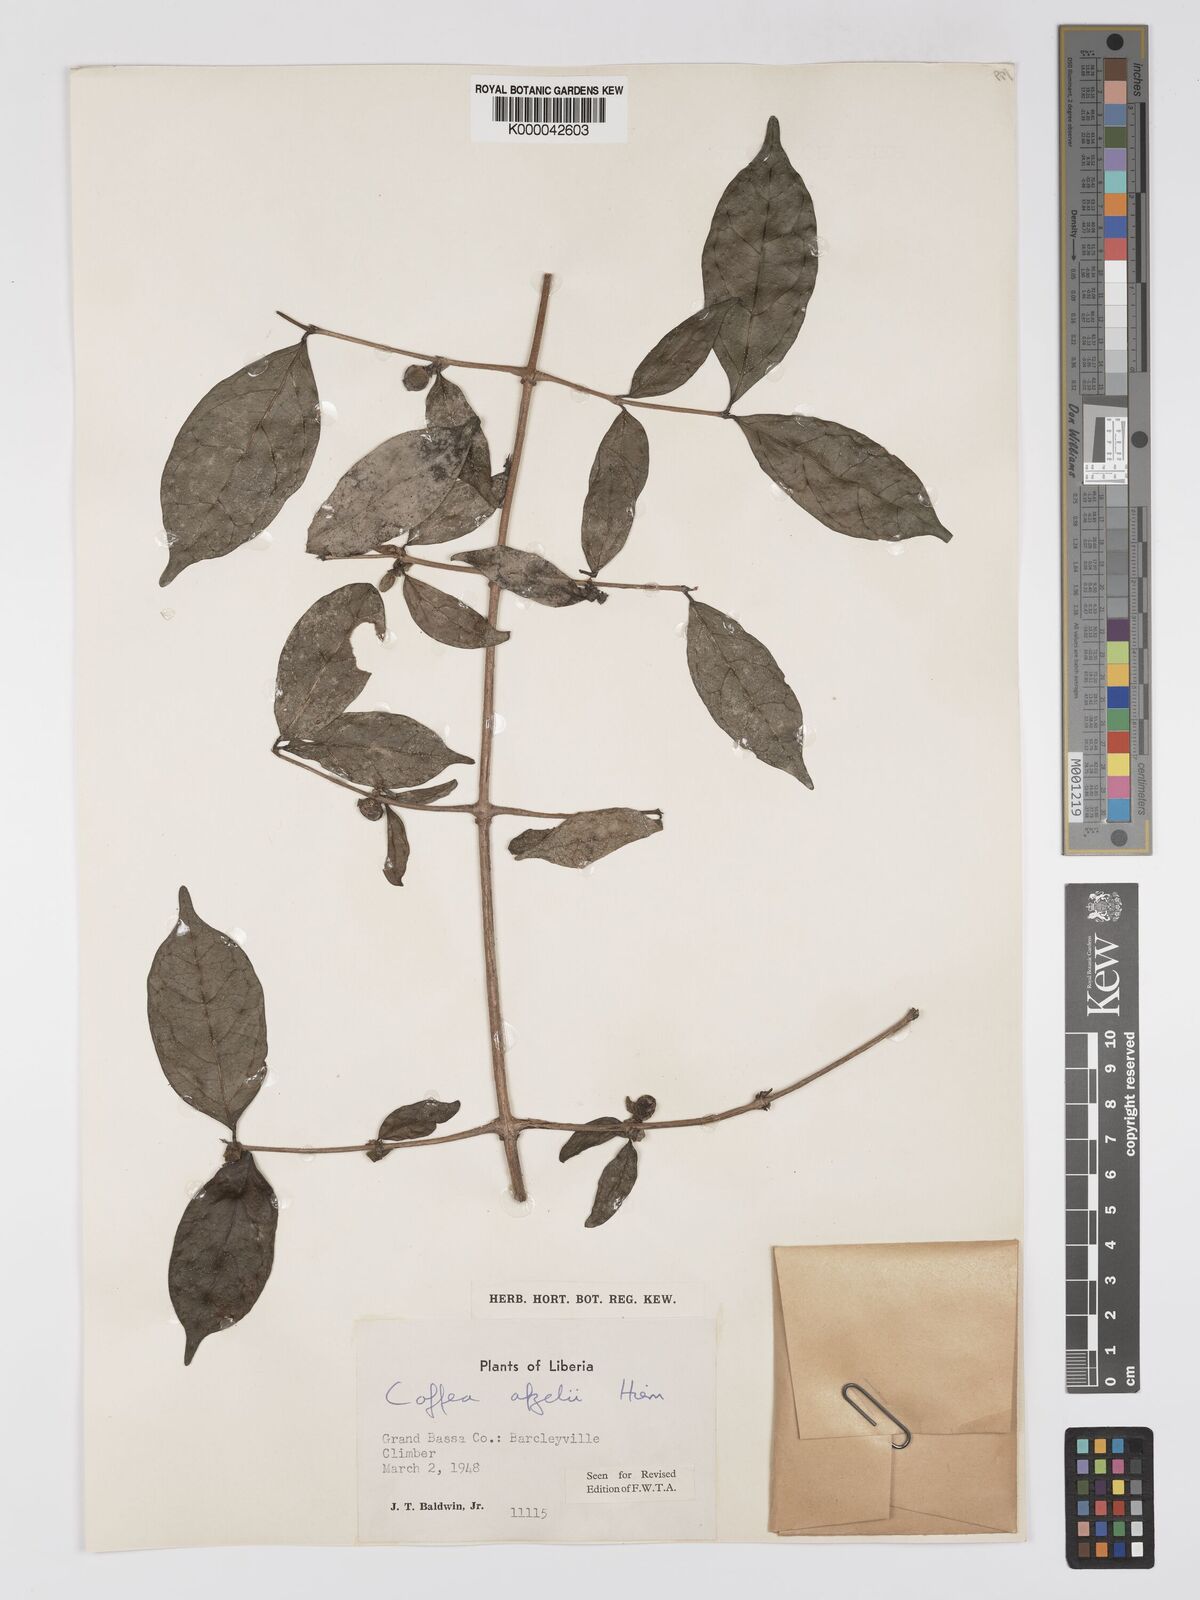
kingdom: Plantae
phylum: Tracheophyta
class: Magnoliopsida
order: Gentianales
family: Rubiaceae
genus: Argocoffeopsis
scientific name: Argocoffeopsis afzelii
